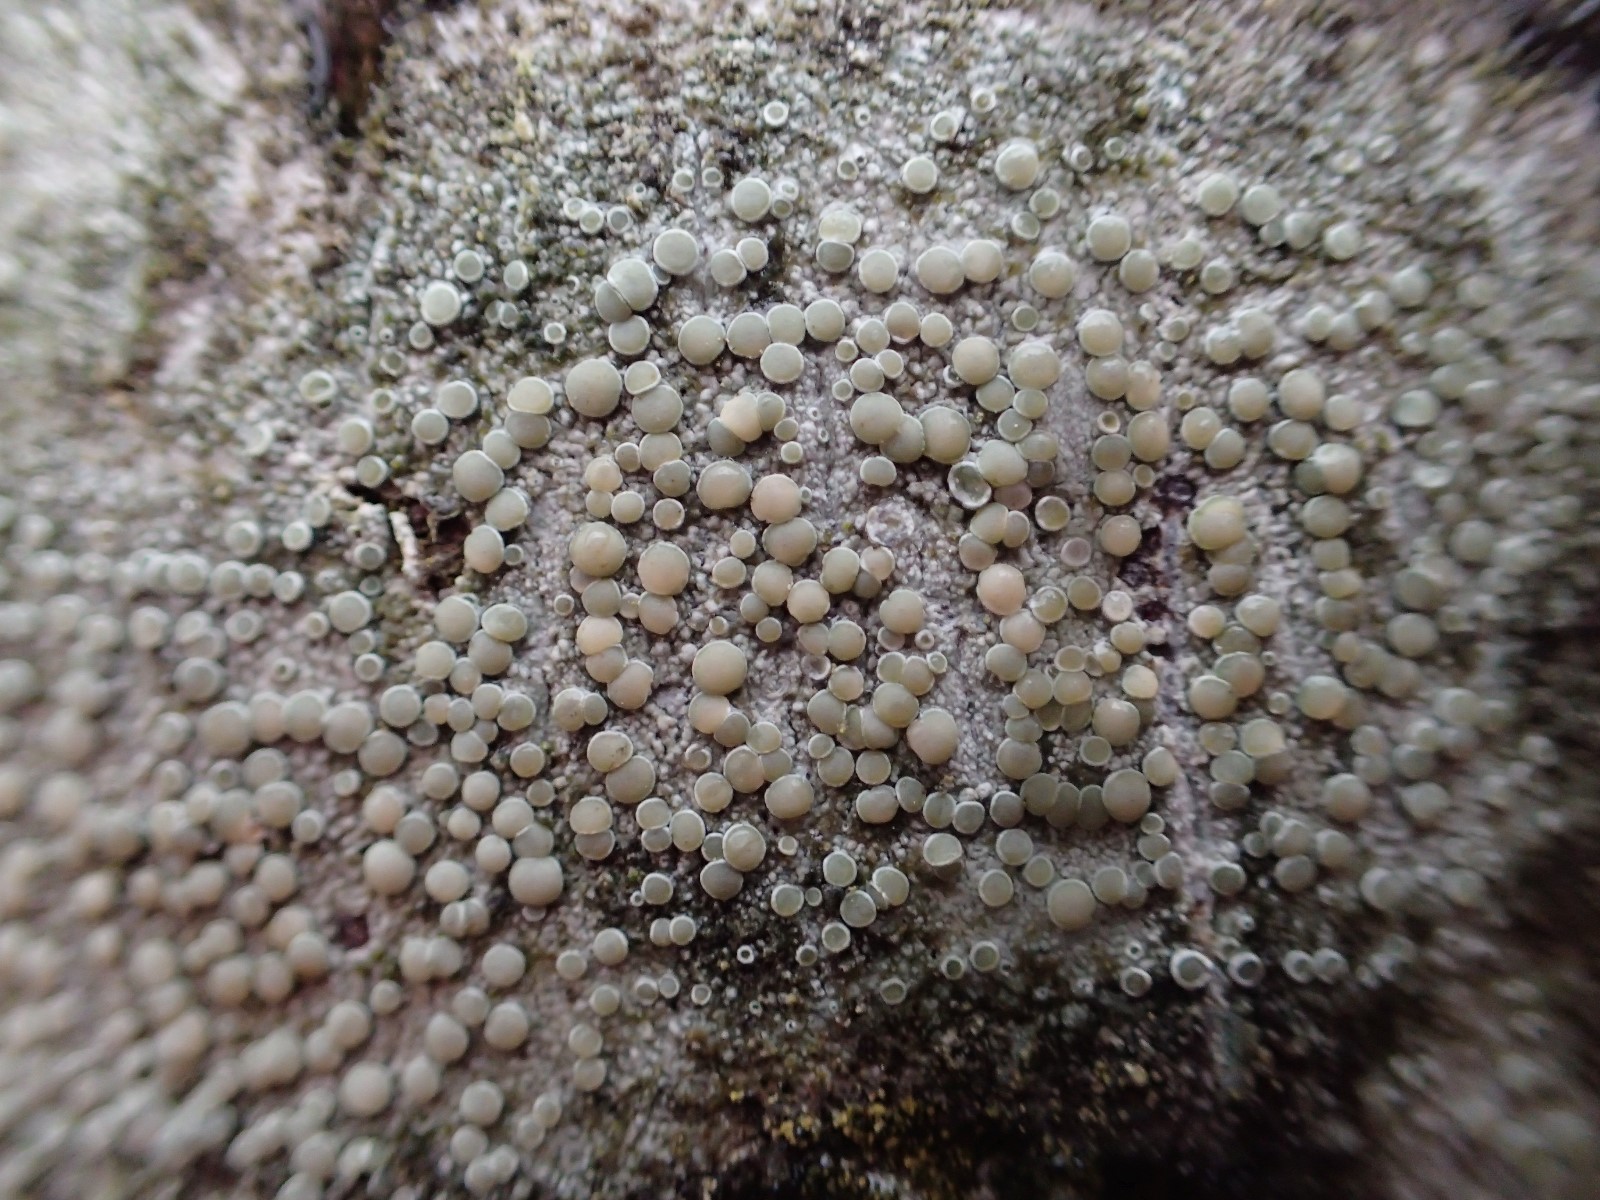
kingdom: Fungi
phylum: Ascomycota
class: Lecanoromycetes
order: Lecanorales
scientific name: Lecanorales
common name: skivelavordenen
